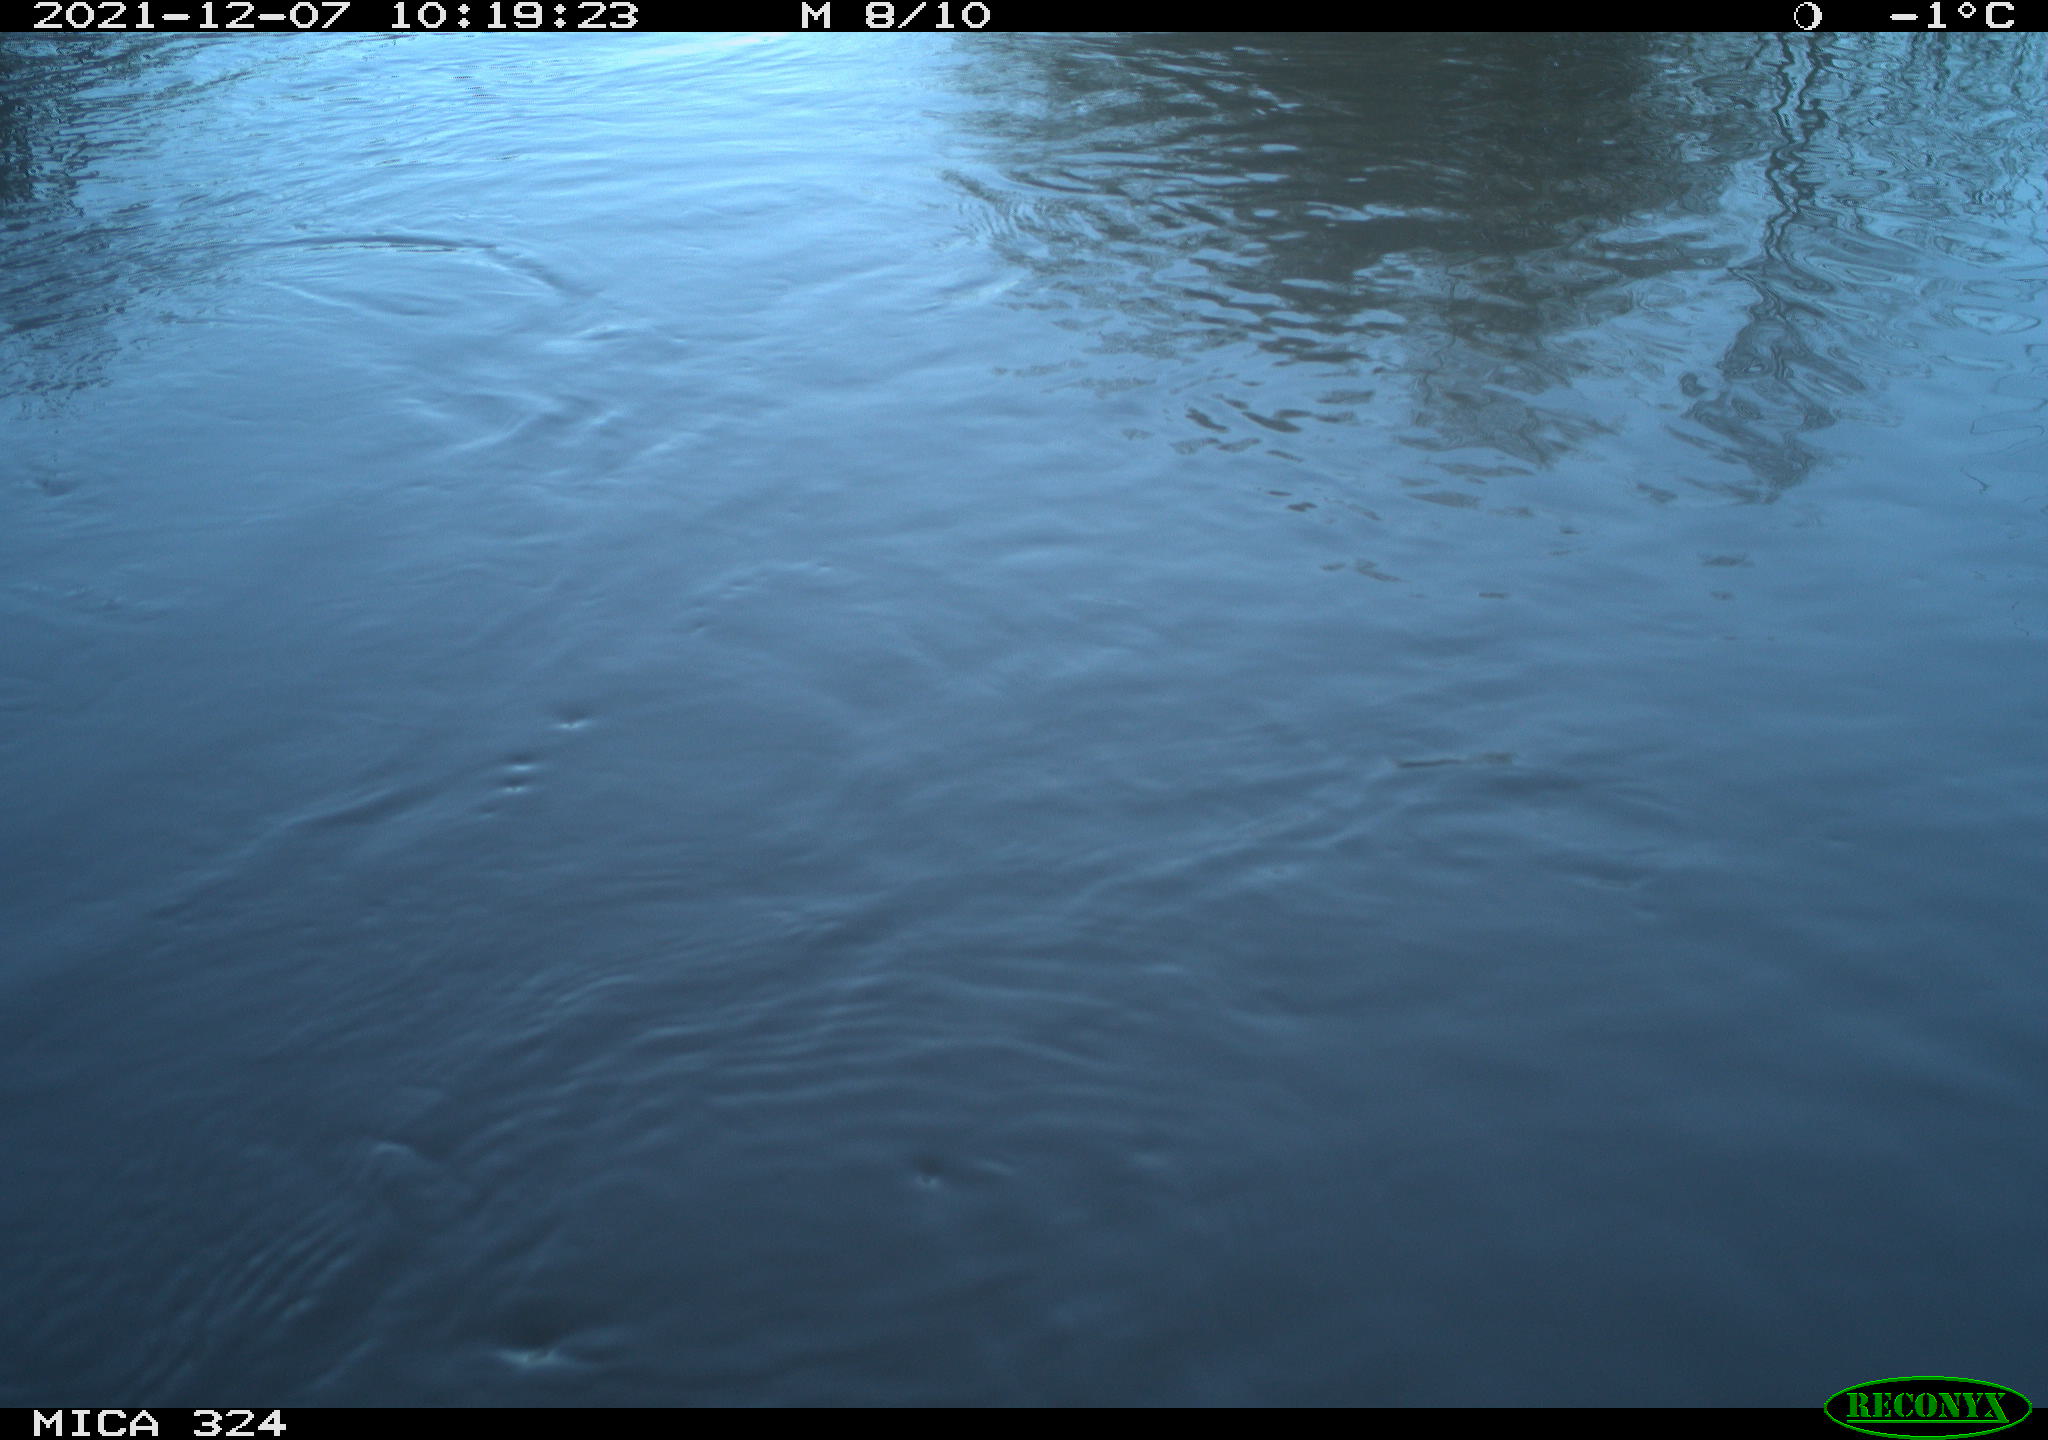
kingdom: Animalia
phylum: Chordata
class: Mammalia
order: Rodentia
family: Cricetidae
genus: Ondatra
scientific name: Ondatra zibethicus
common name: Muskrat
